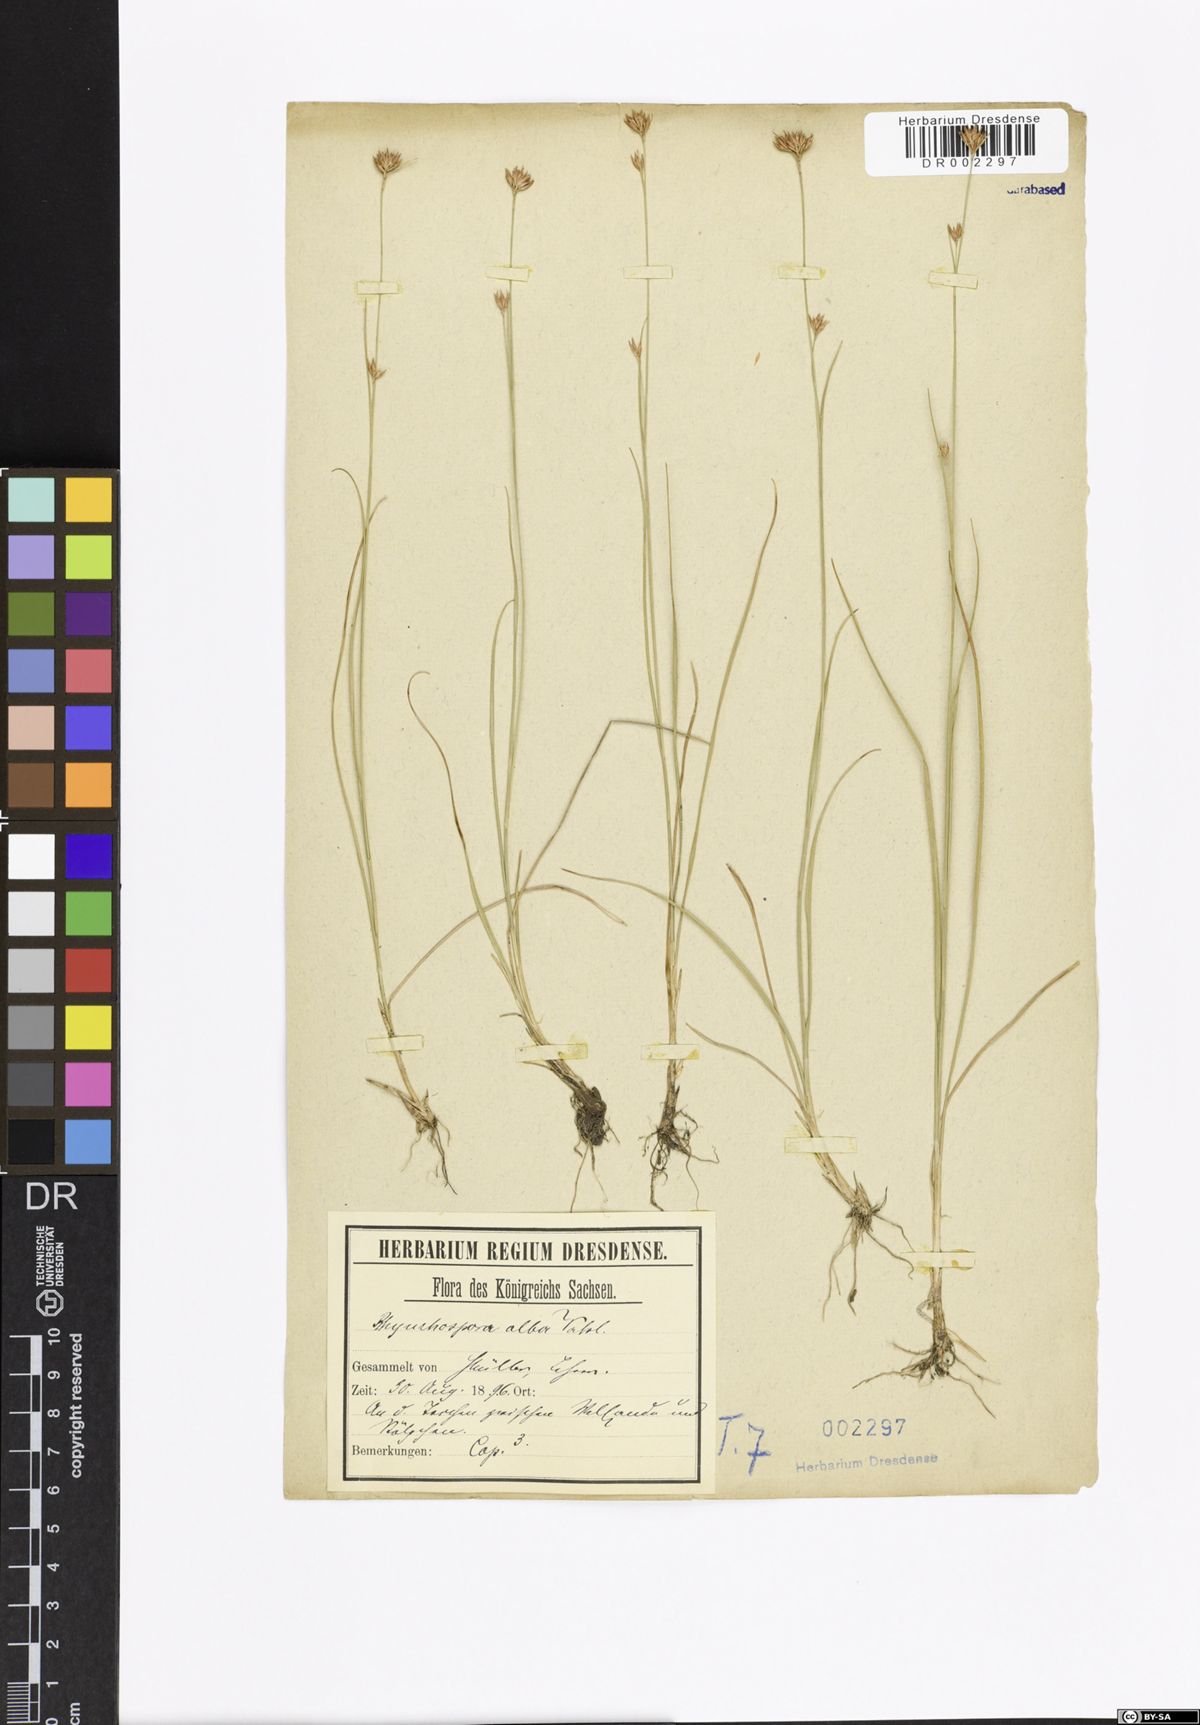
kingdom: Plantae
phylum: Tracheophyta
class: Liliopsida
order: Poales
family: Cyperaceae
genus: Rhynchospora
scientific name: Rhynchospora alba
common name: White beak-sedge
